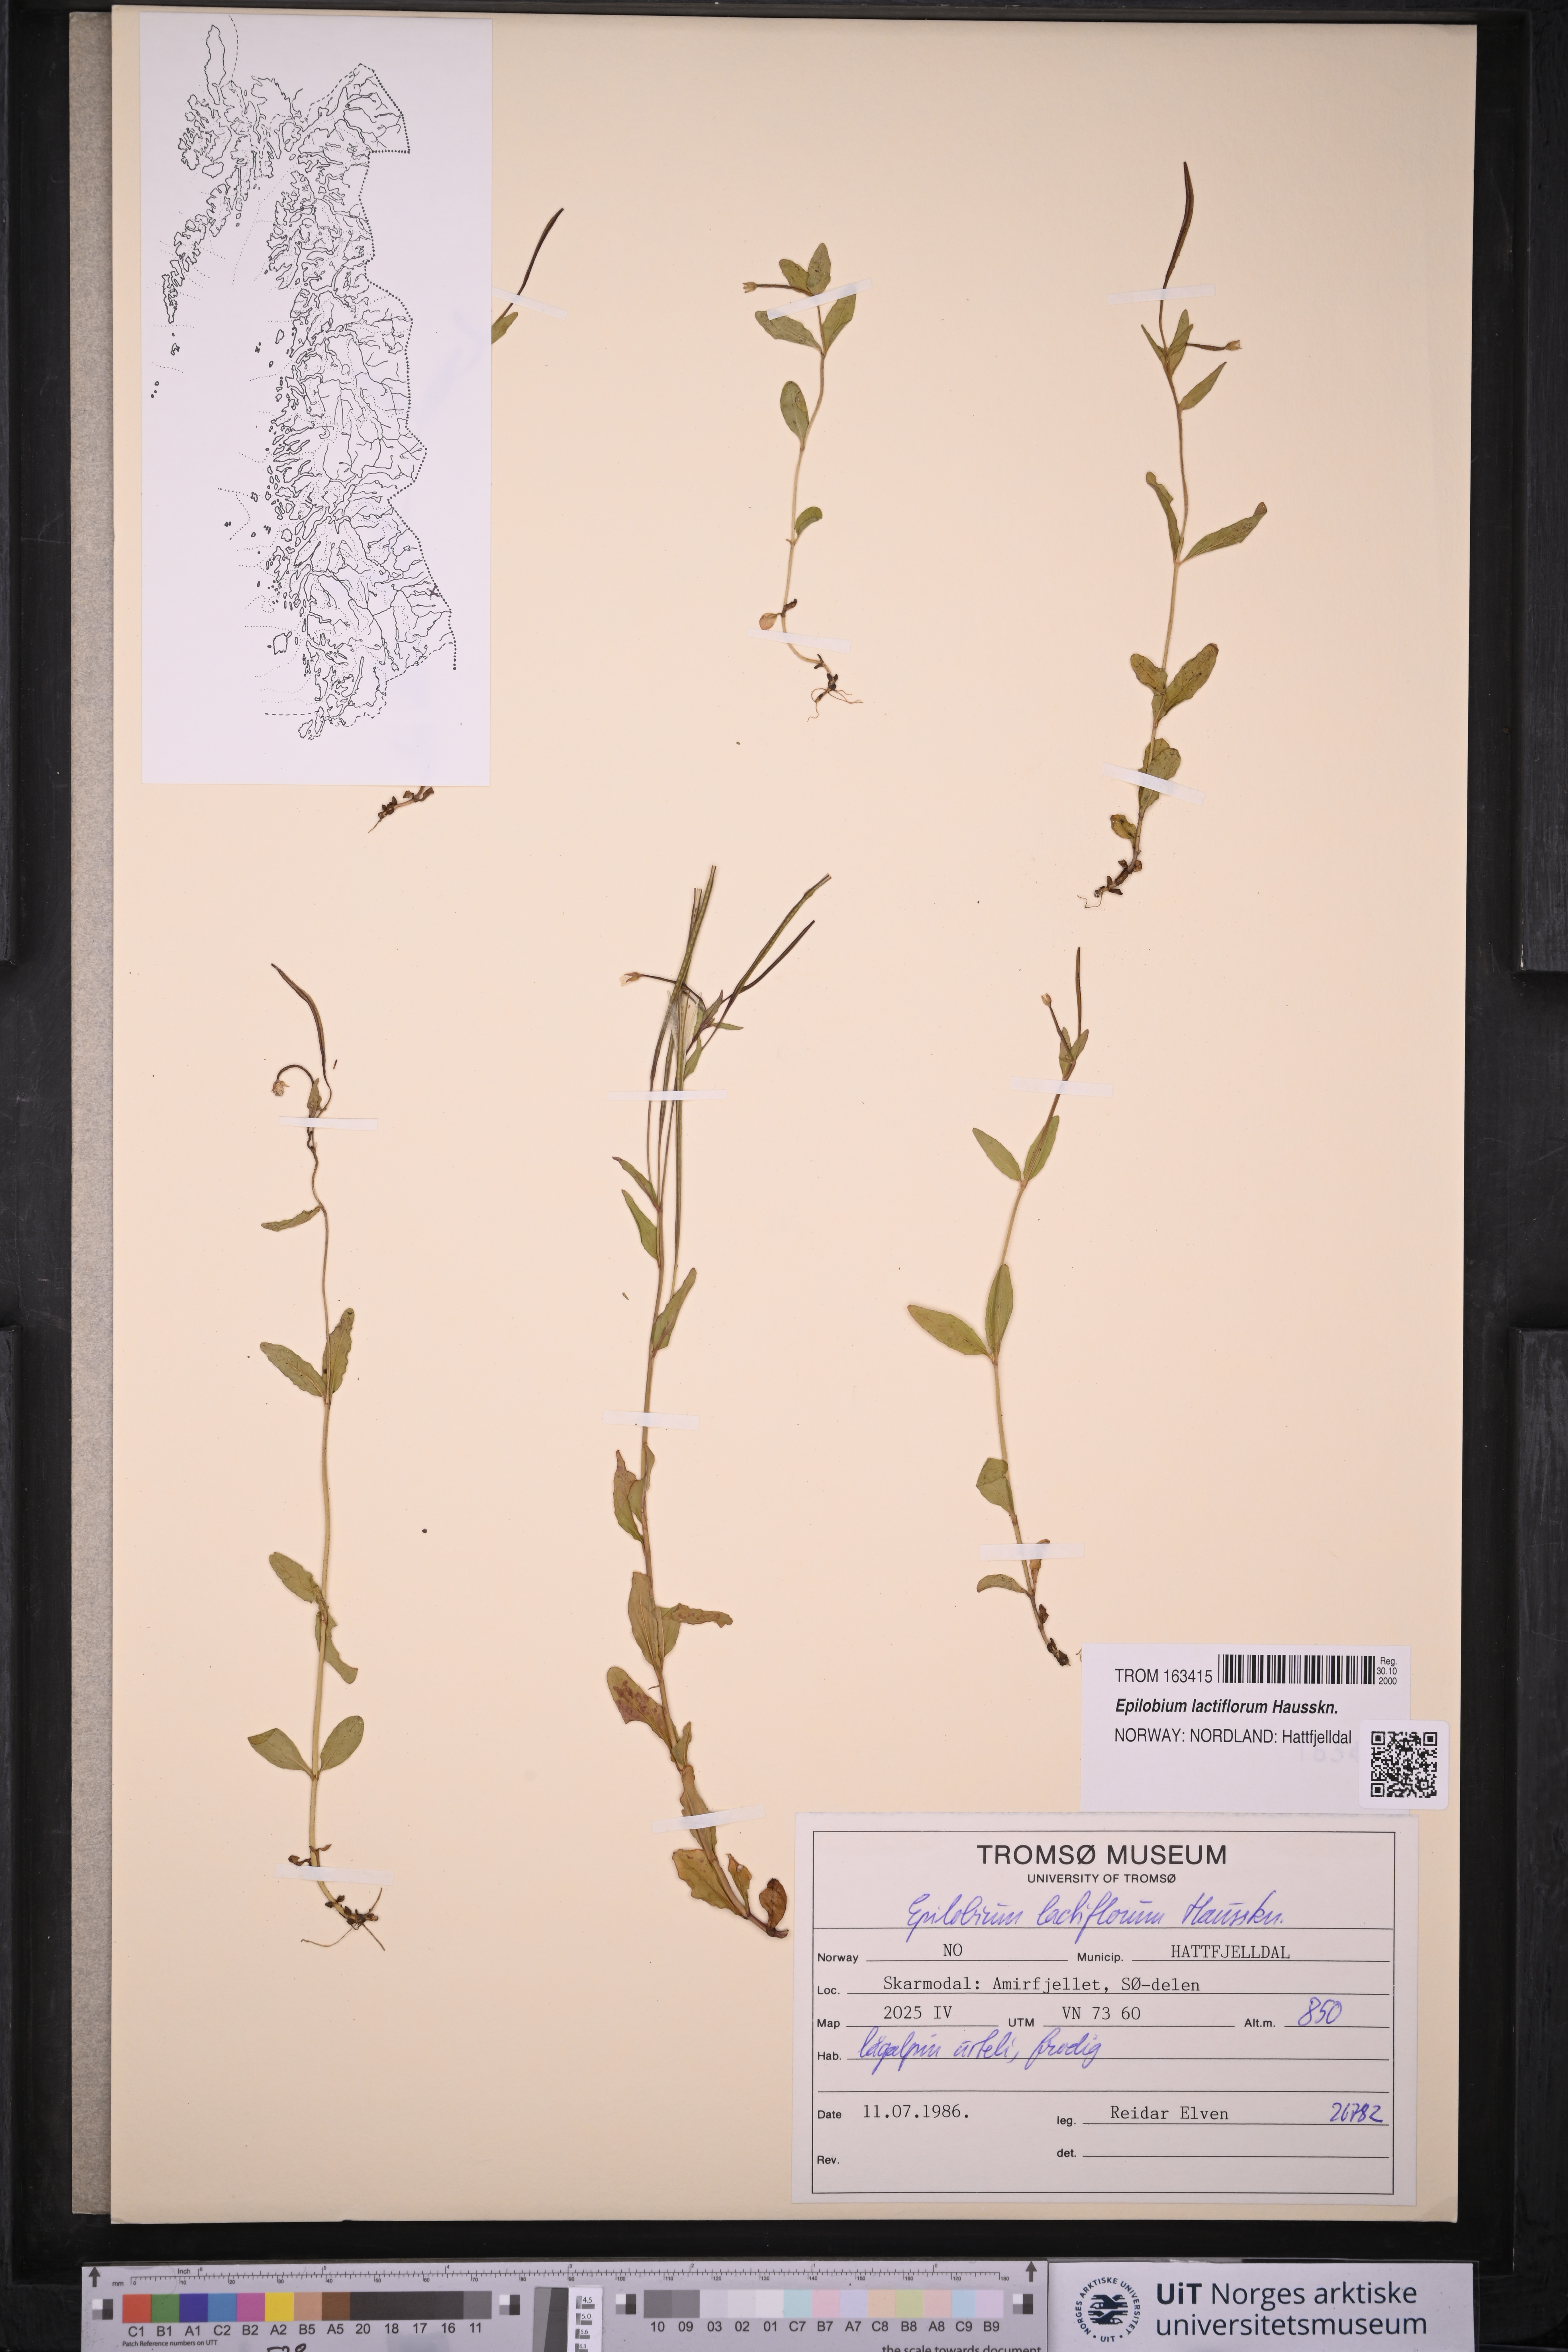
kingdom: Plantae
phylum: Tracheophyta
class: Magnoliopsida
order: Myrtales
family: Onagraceae
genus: Epilobium
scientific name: Epilobium lactiflorum
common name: Milkflower willowherb
